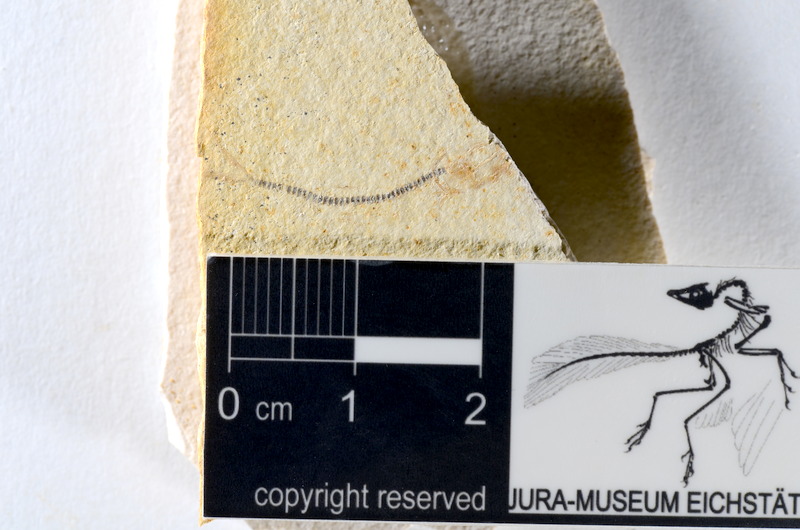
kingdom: Animalia
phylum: Chordata
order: Salmoniformes
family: Orthogonikleithridae
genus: Orthogonikleithrus
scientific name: Orthogonikleithrus hoelli
